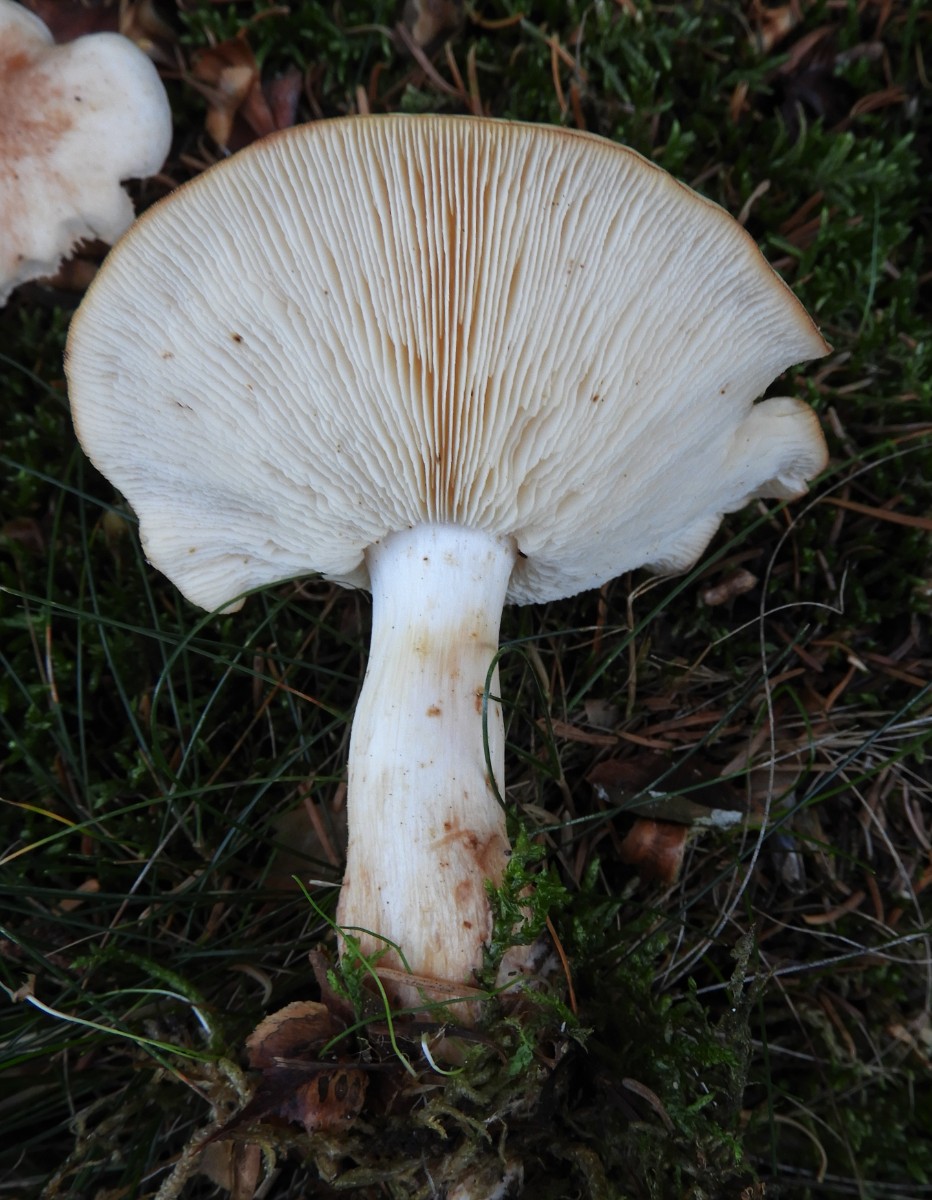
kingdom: Fungi
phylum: Basidiomycota
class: Agaricomycetes
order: Agaricales
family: Omphalotaceae
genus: Rhodocollybia
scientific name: Rhodocollybia maculata
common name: plettet fladhat
